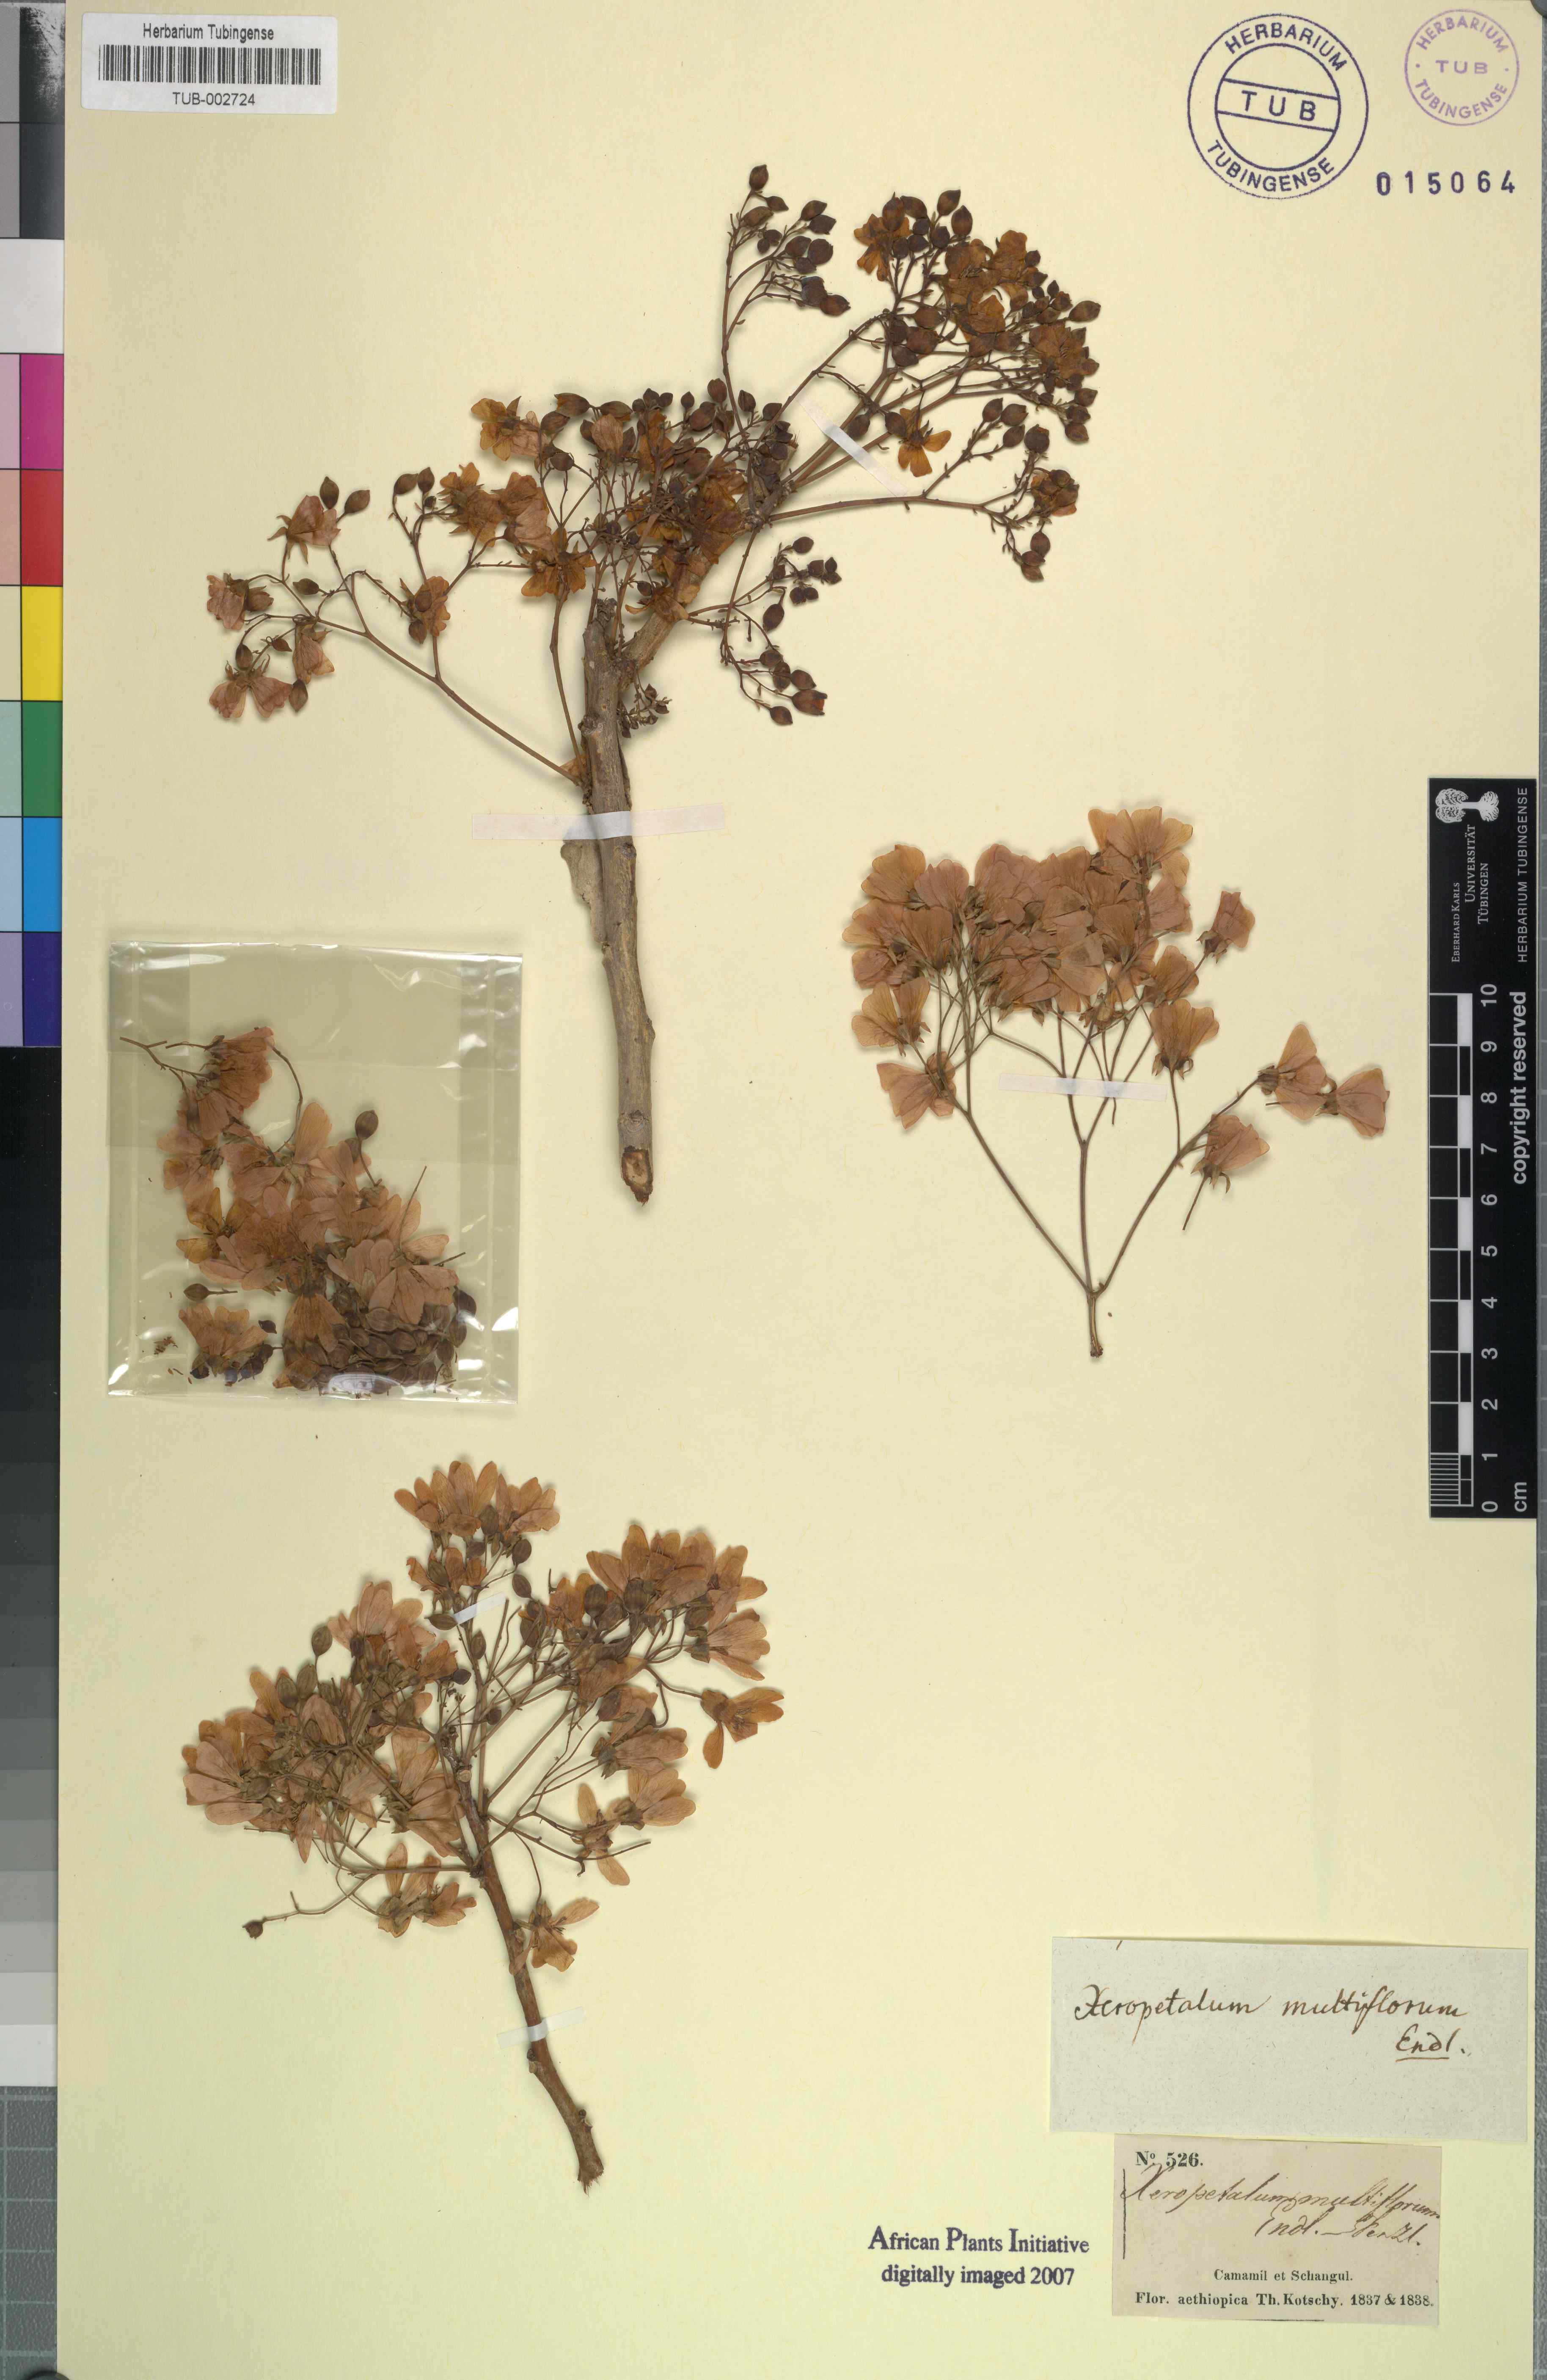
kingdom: Plantae
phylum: Tracheophyta
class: Magnoliopsida
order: Malvales
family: Malvaceae
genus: Dombeya
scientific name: Dombeya quinqueseta
